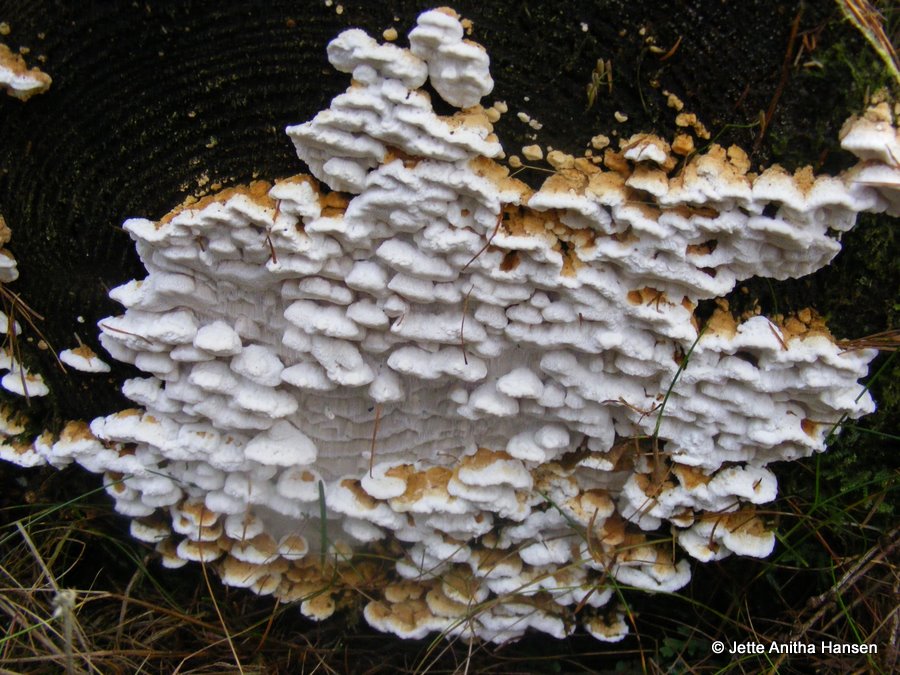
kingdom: Fungi
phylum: Basidiomycota
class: Agaricomycetes
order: Polyporales
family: Fomitopsidaceae
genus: Neoantrodia
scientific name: Neoantrodia serialis
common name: række-sejporesvamp
